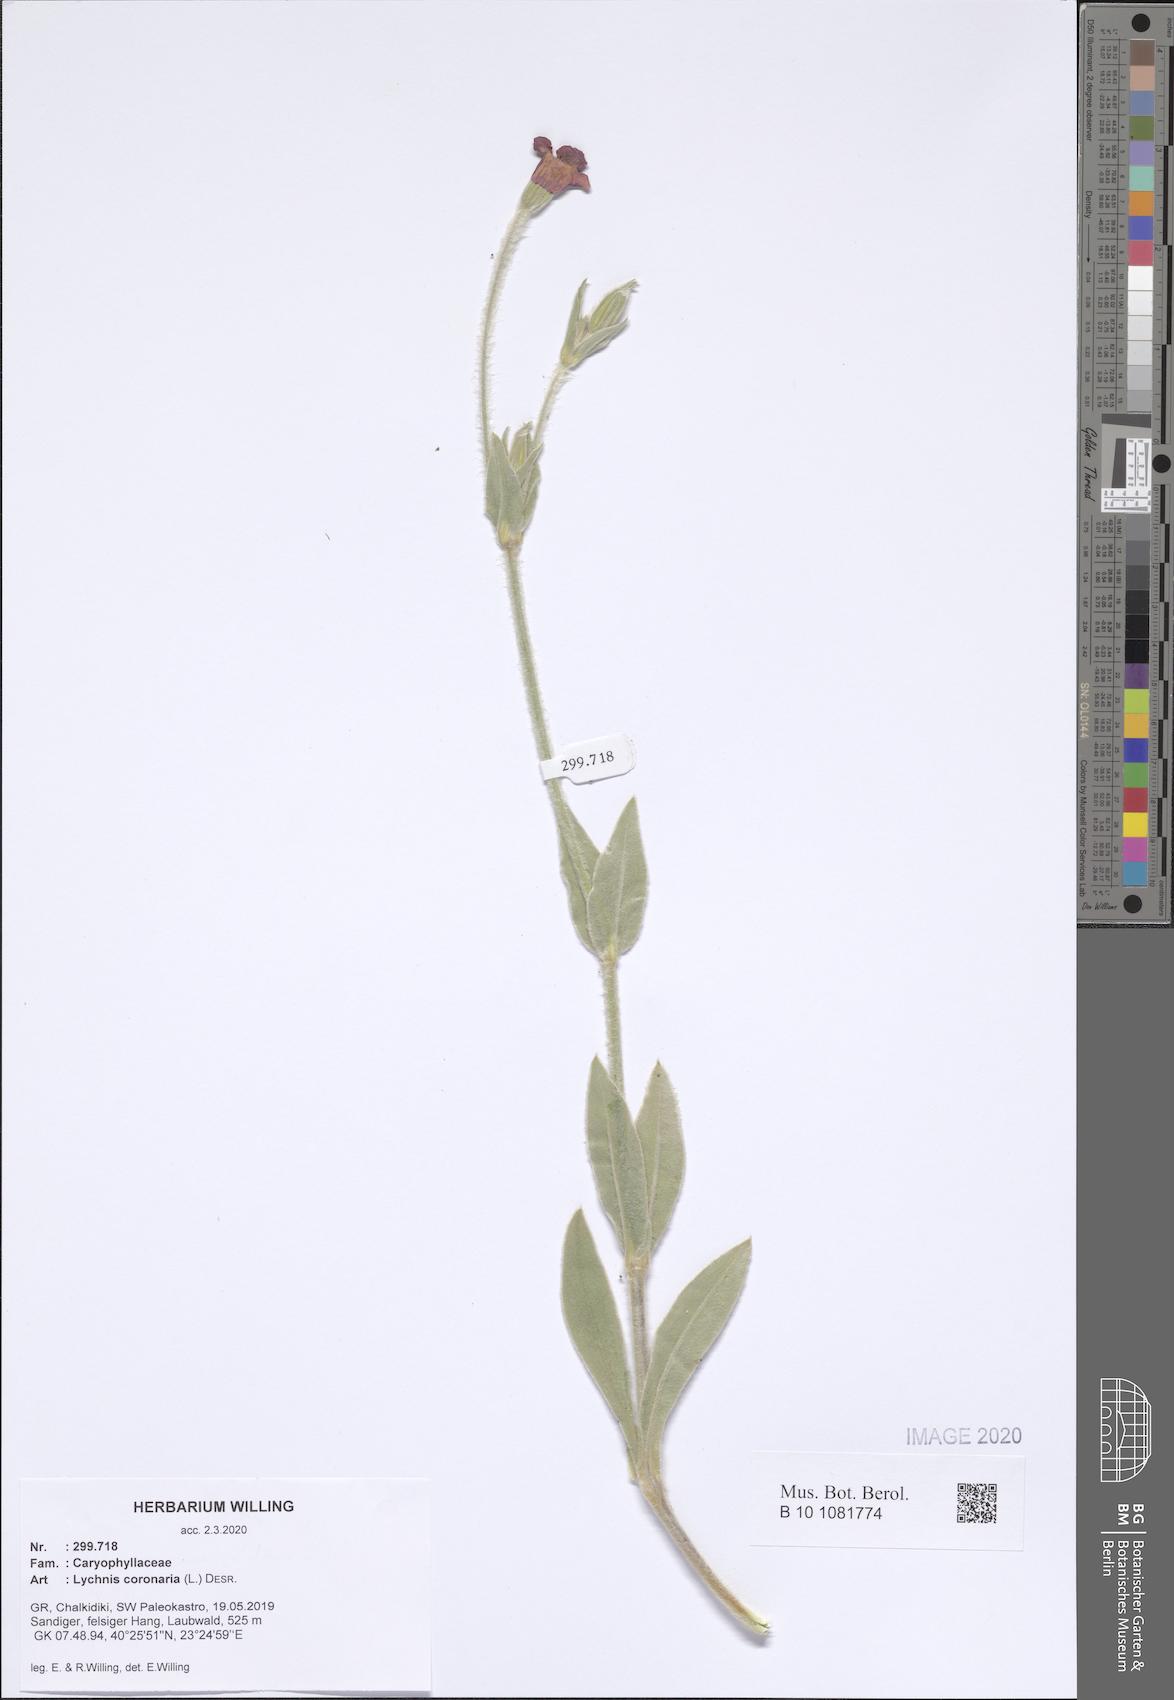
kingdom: Plantae
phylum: Tracheophyta
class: Magnoliopsida
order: Caryophyllales
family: Caryophyllaceae
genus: Silene
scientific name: Silene coronaria
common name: Rose campion
